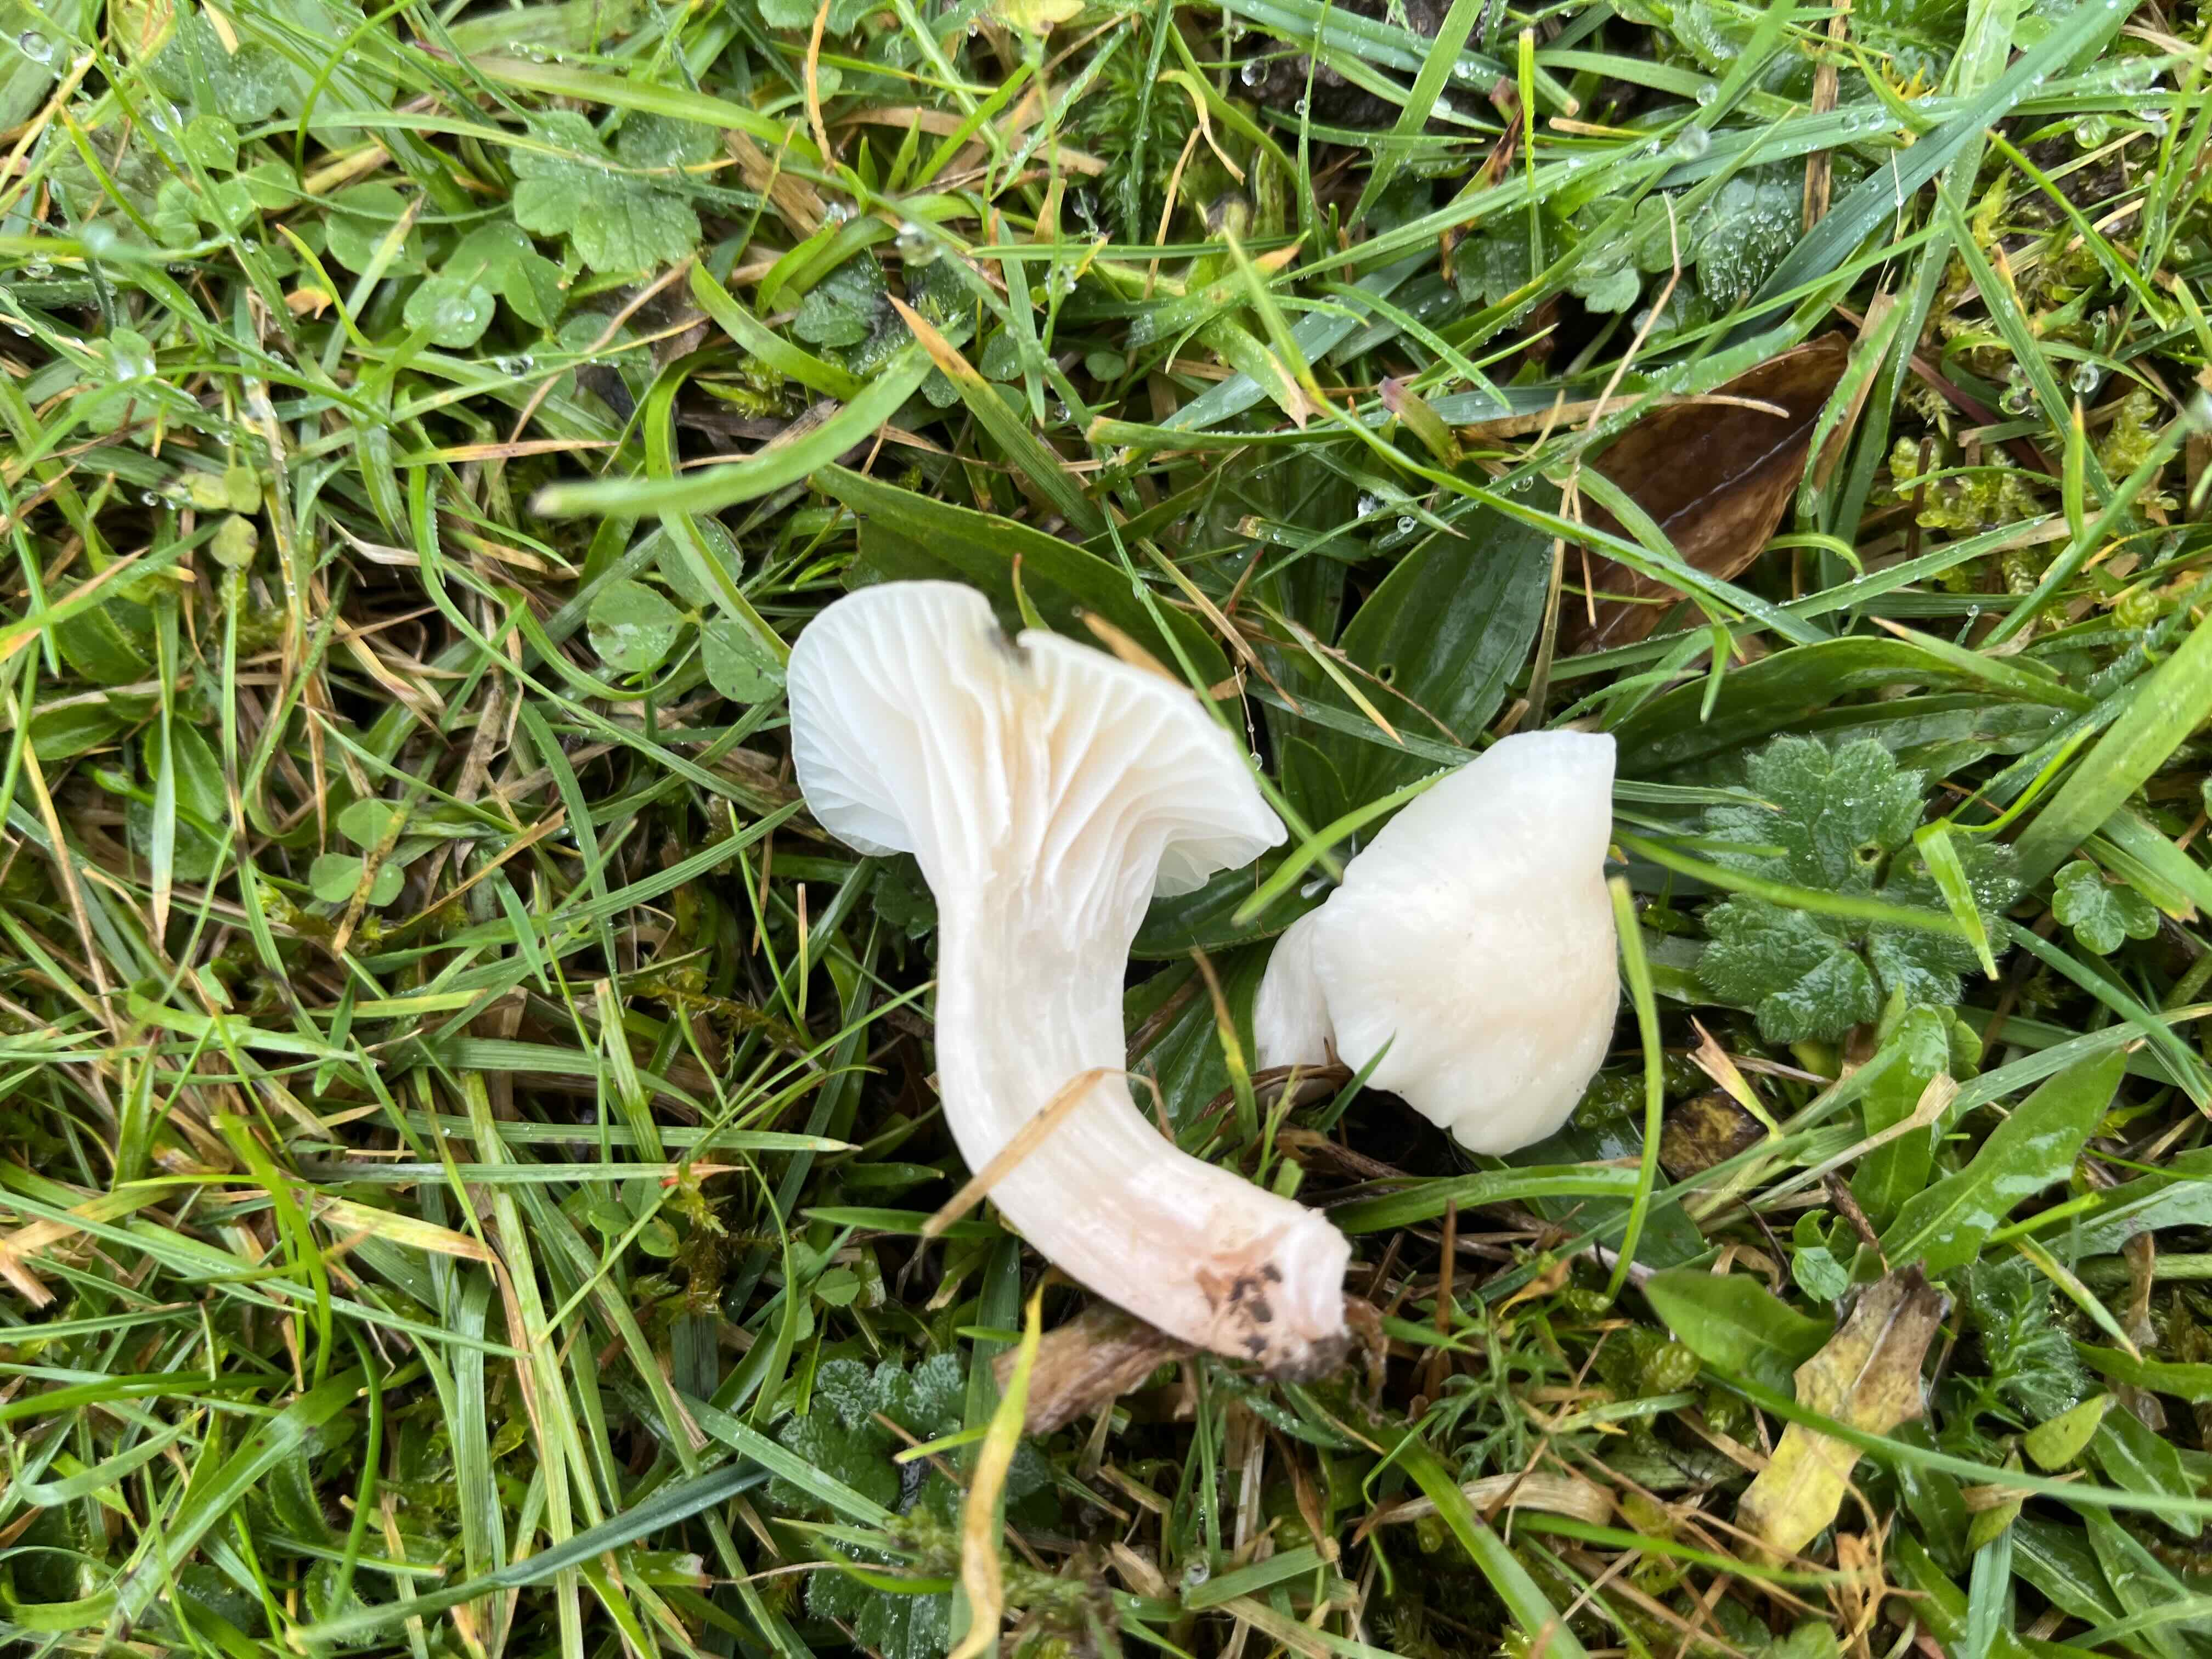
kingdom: Fungi
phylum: Basidiomycota
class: Agaricomycetes
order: Agaricales
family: Hygrophoraceae
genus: Cuphophyllus
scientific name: Cuphophyllus virgineus
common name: snehvid vokshat
